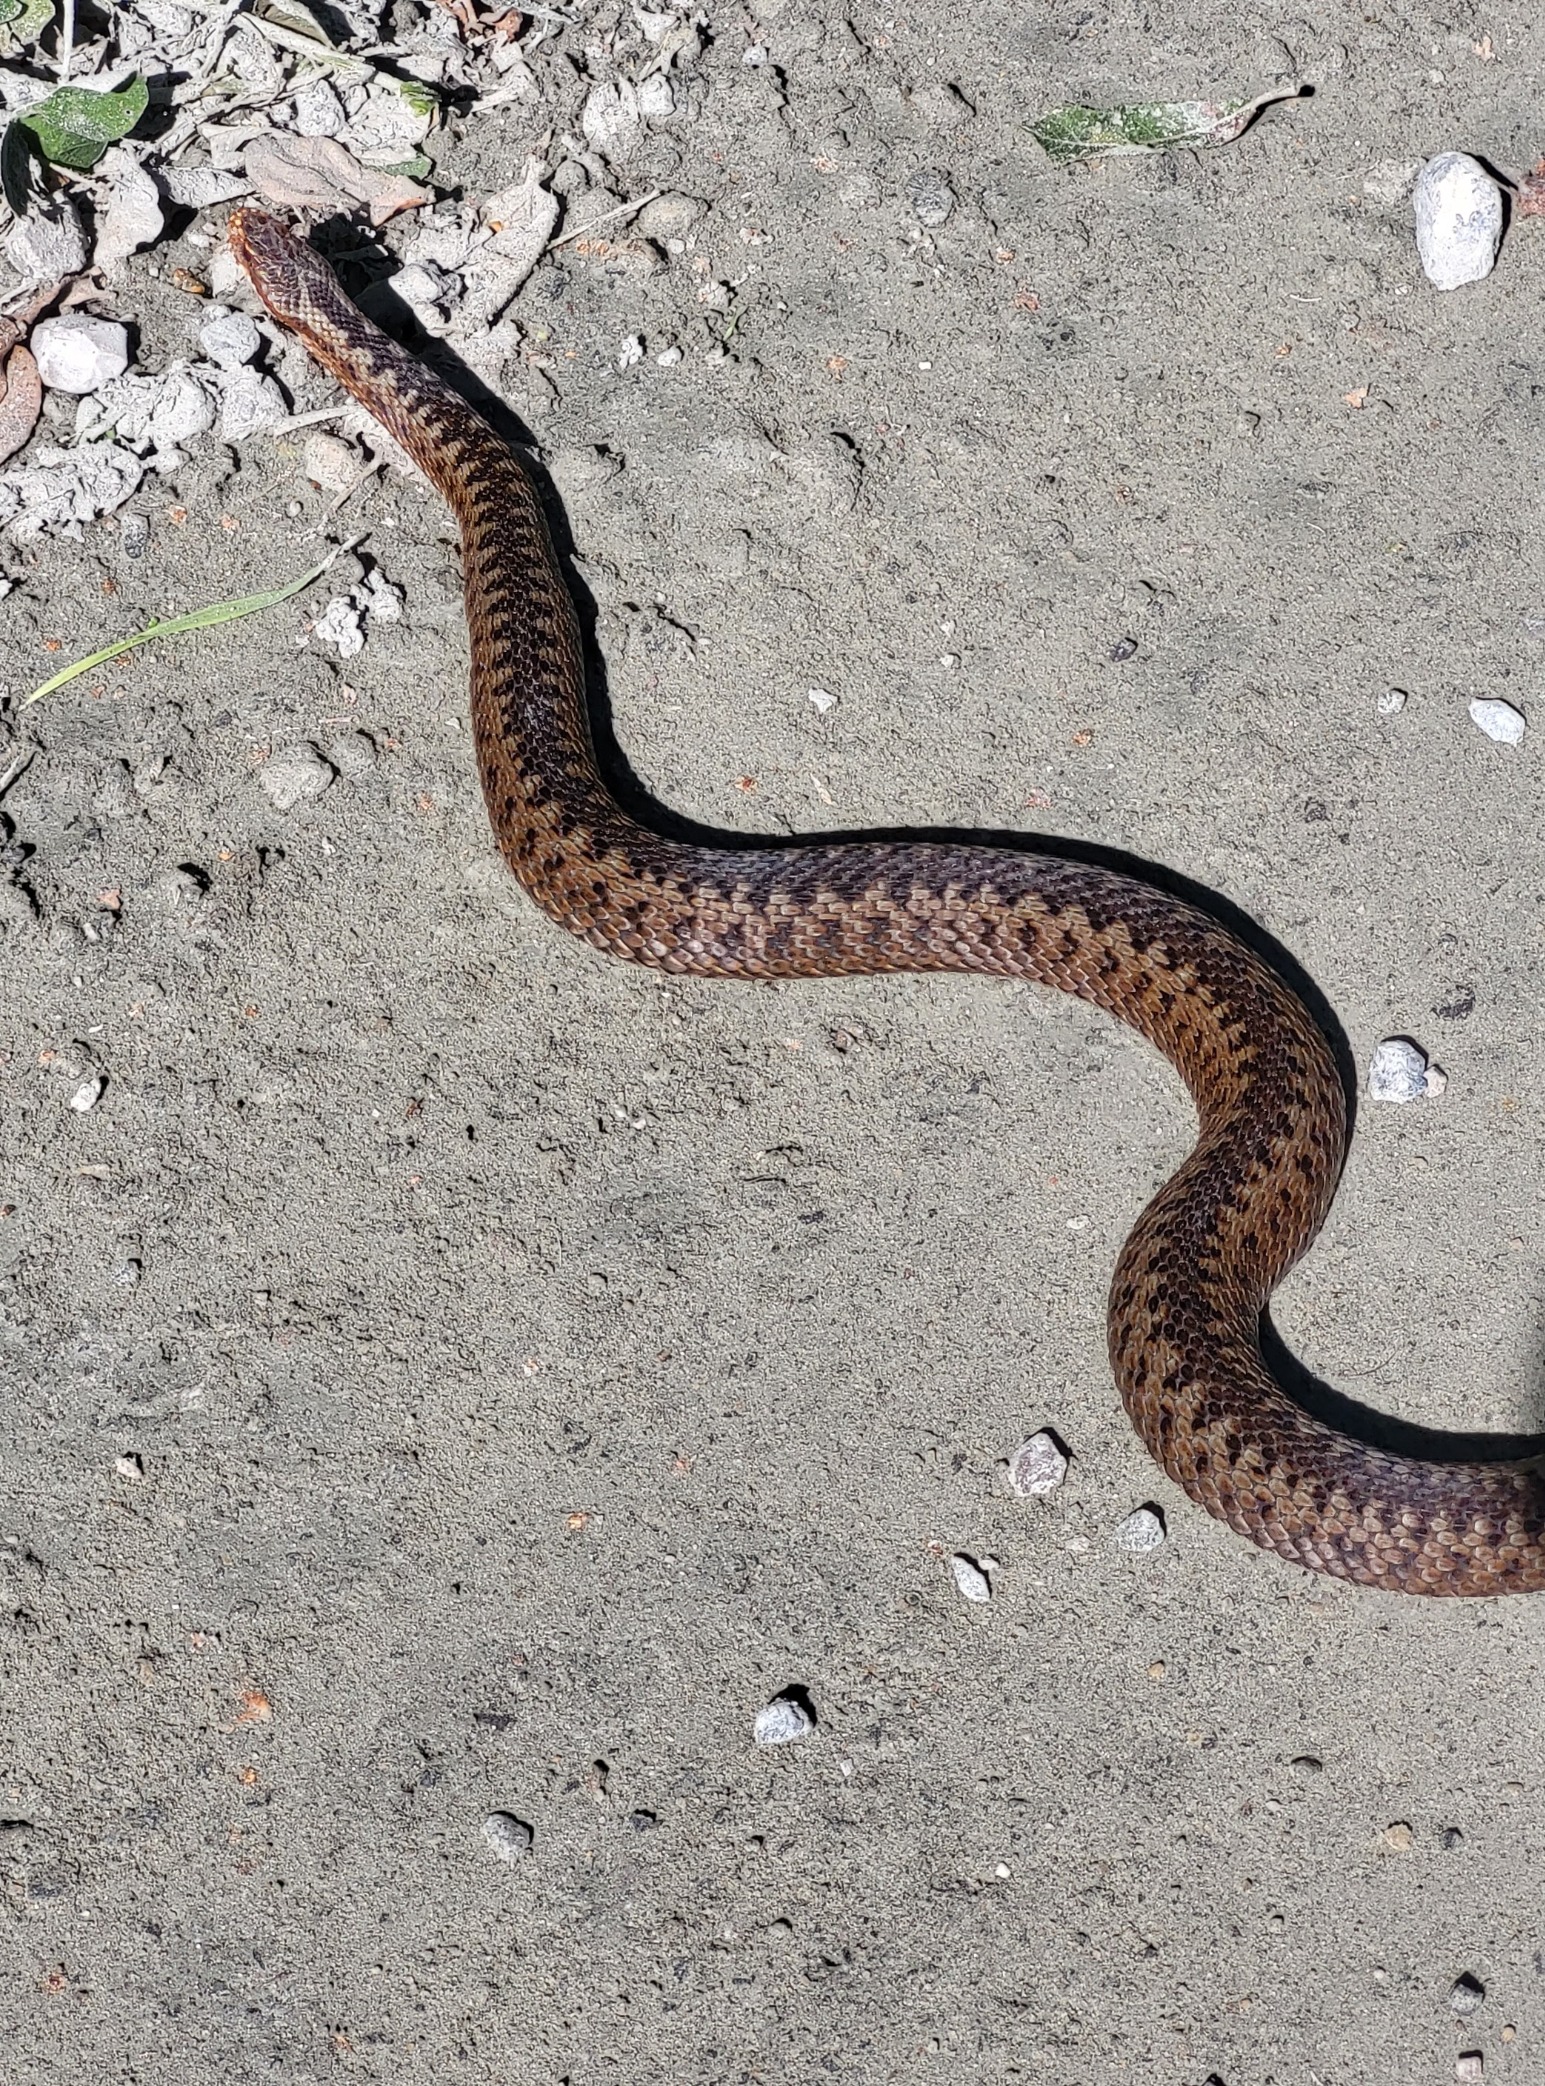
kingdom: Animalia
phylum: Chordata
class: Squamata
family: Viperidae
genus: Vipera
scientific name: Vipera berus
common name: Hugorm
